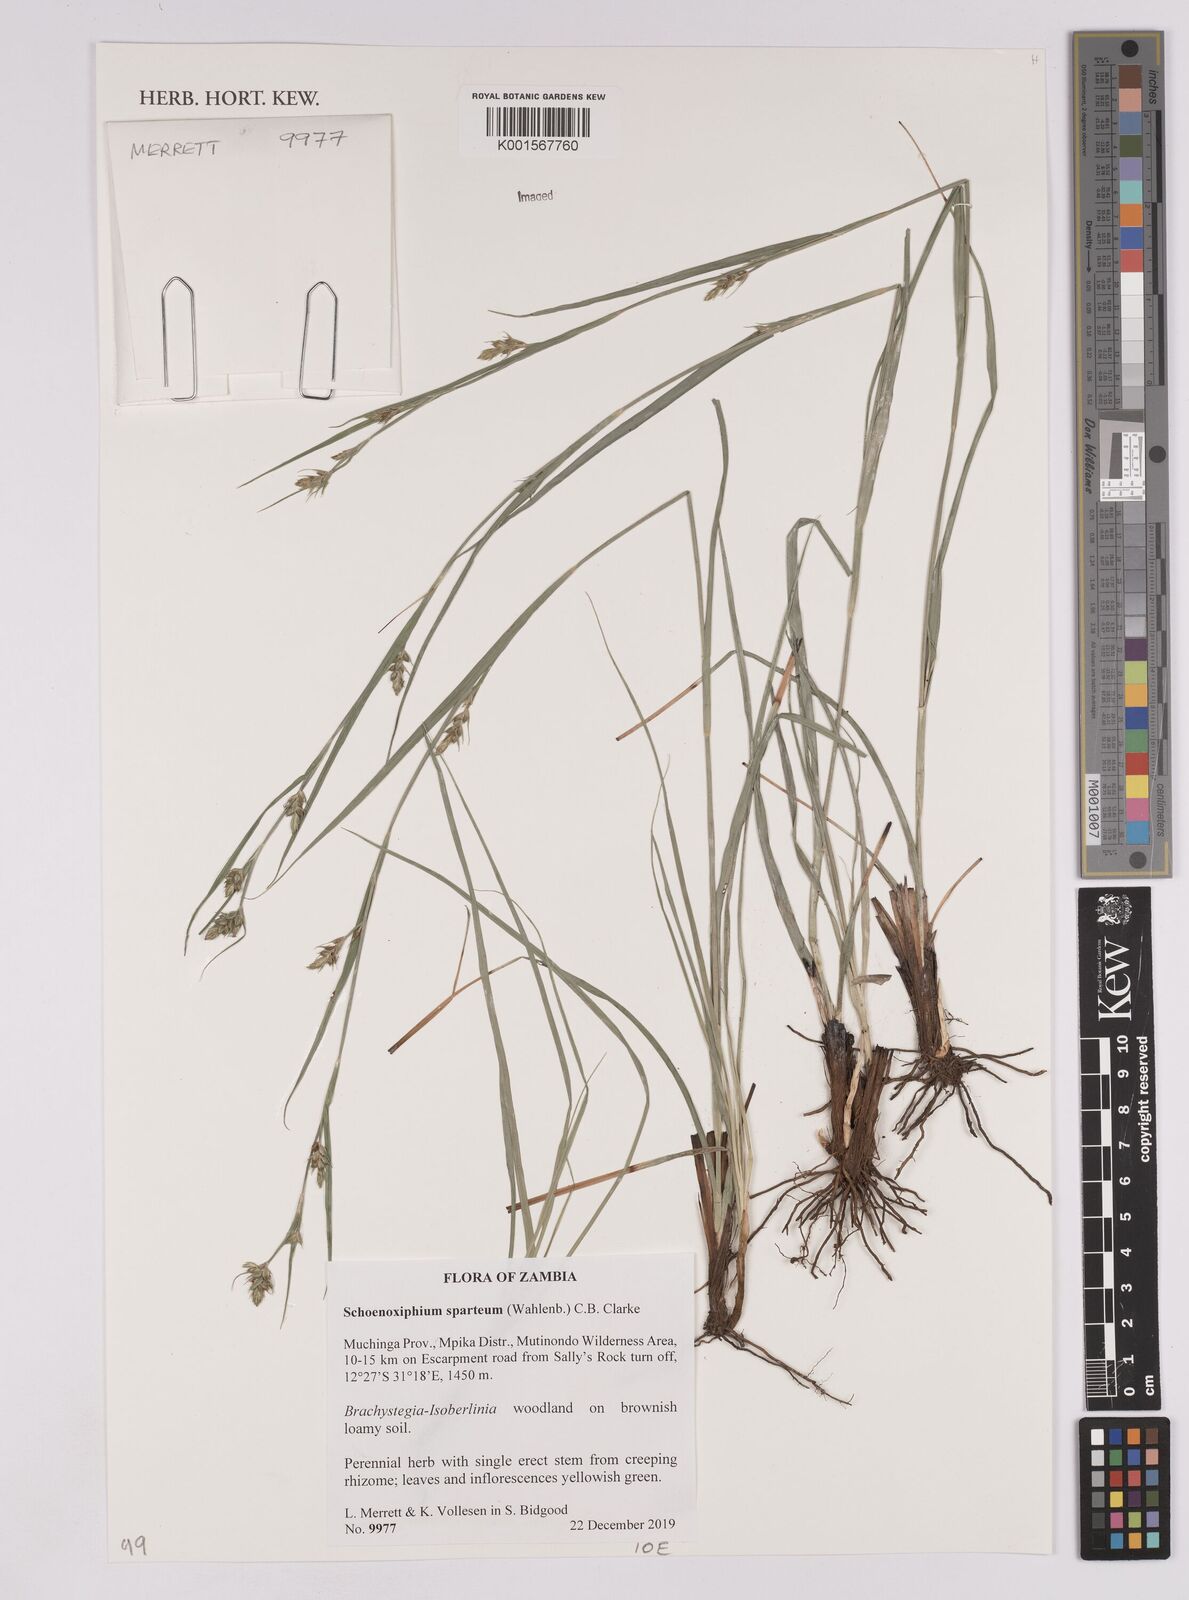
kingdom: Plantae
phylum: Tracheophyta
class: Liliopsida
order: Poales
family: Cyperaceae
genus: Carex
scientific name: Carex spartea
